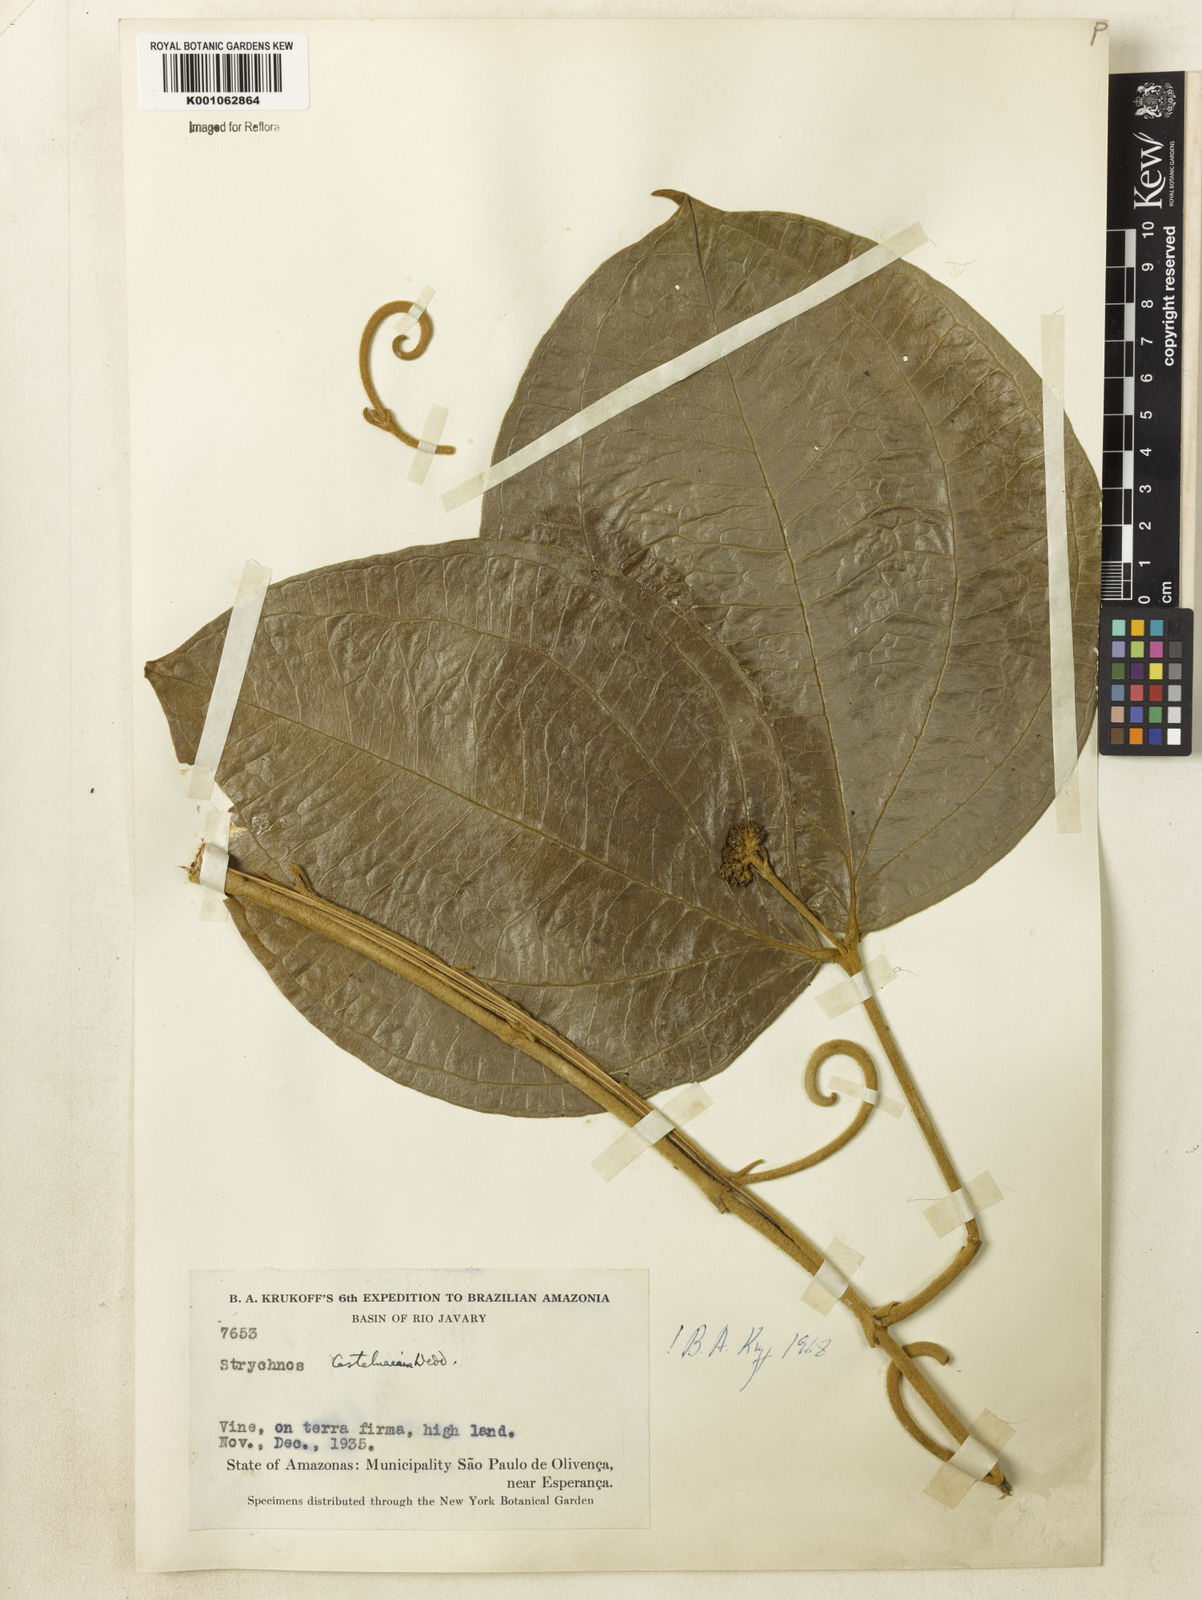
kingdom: Plantae
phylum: Tracheophyta
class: Magnoliopsida
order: Gentianales
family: Loganiaceae
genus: Strychnos
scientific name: Strychnos
